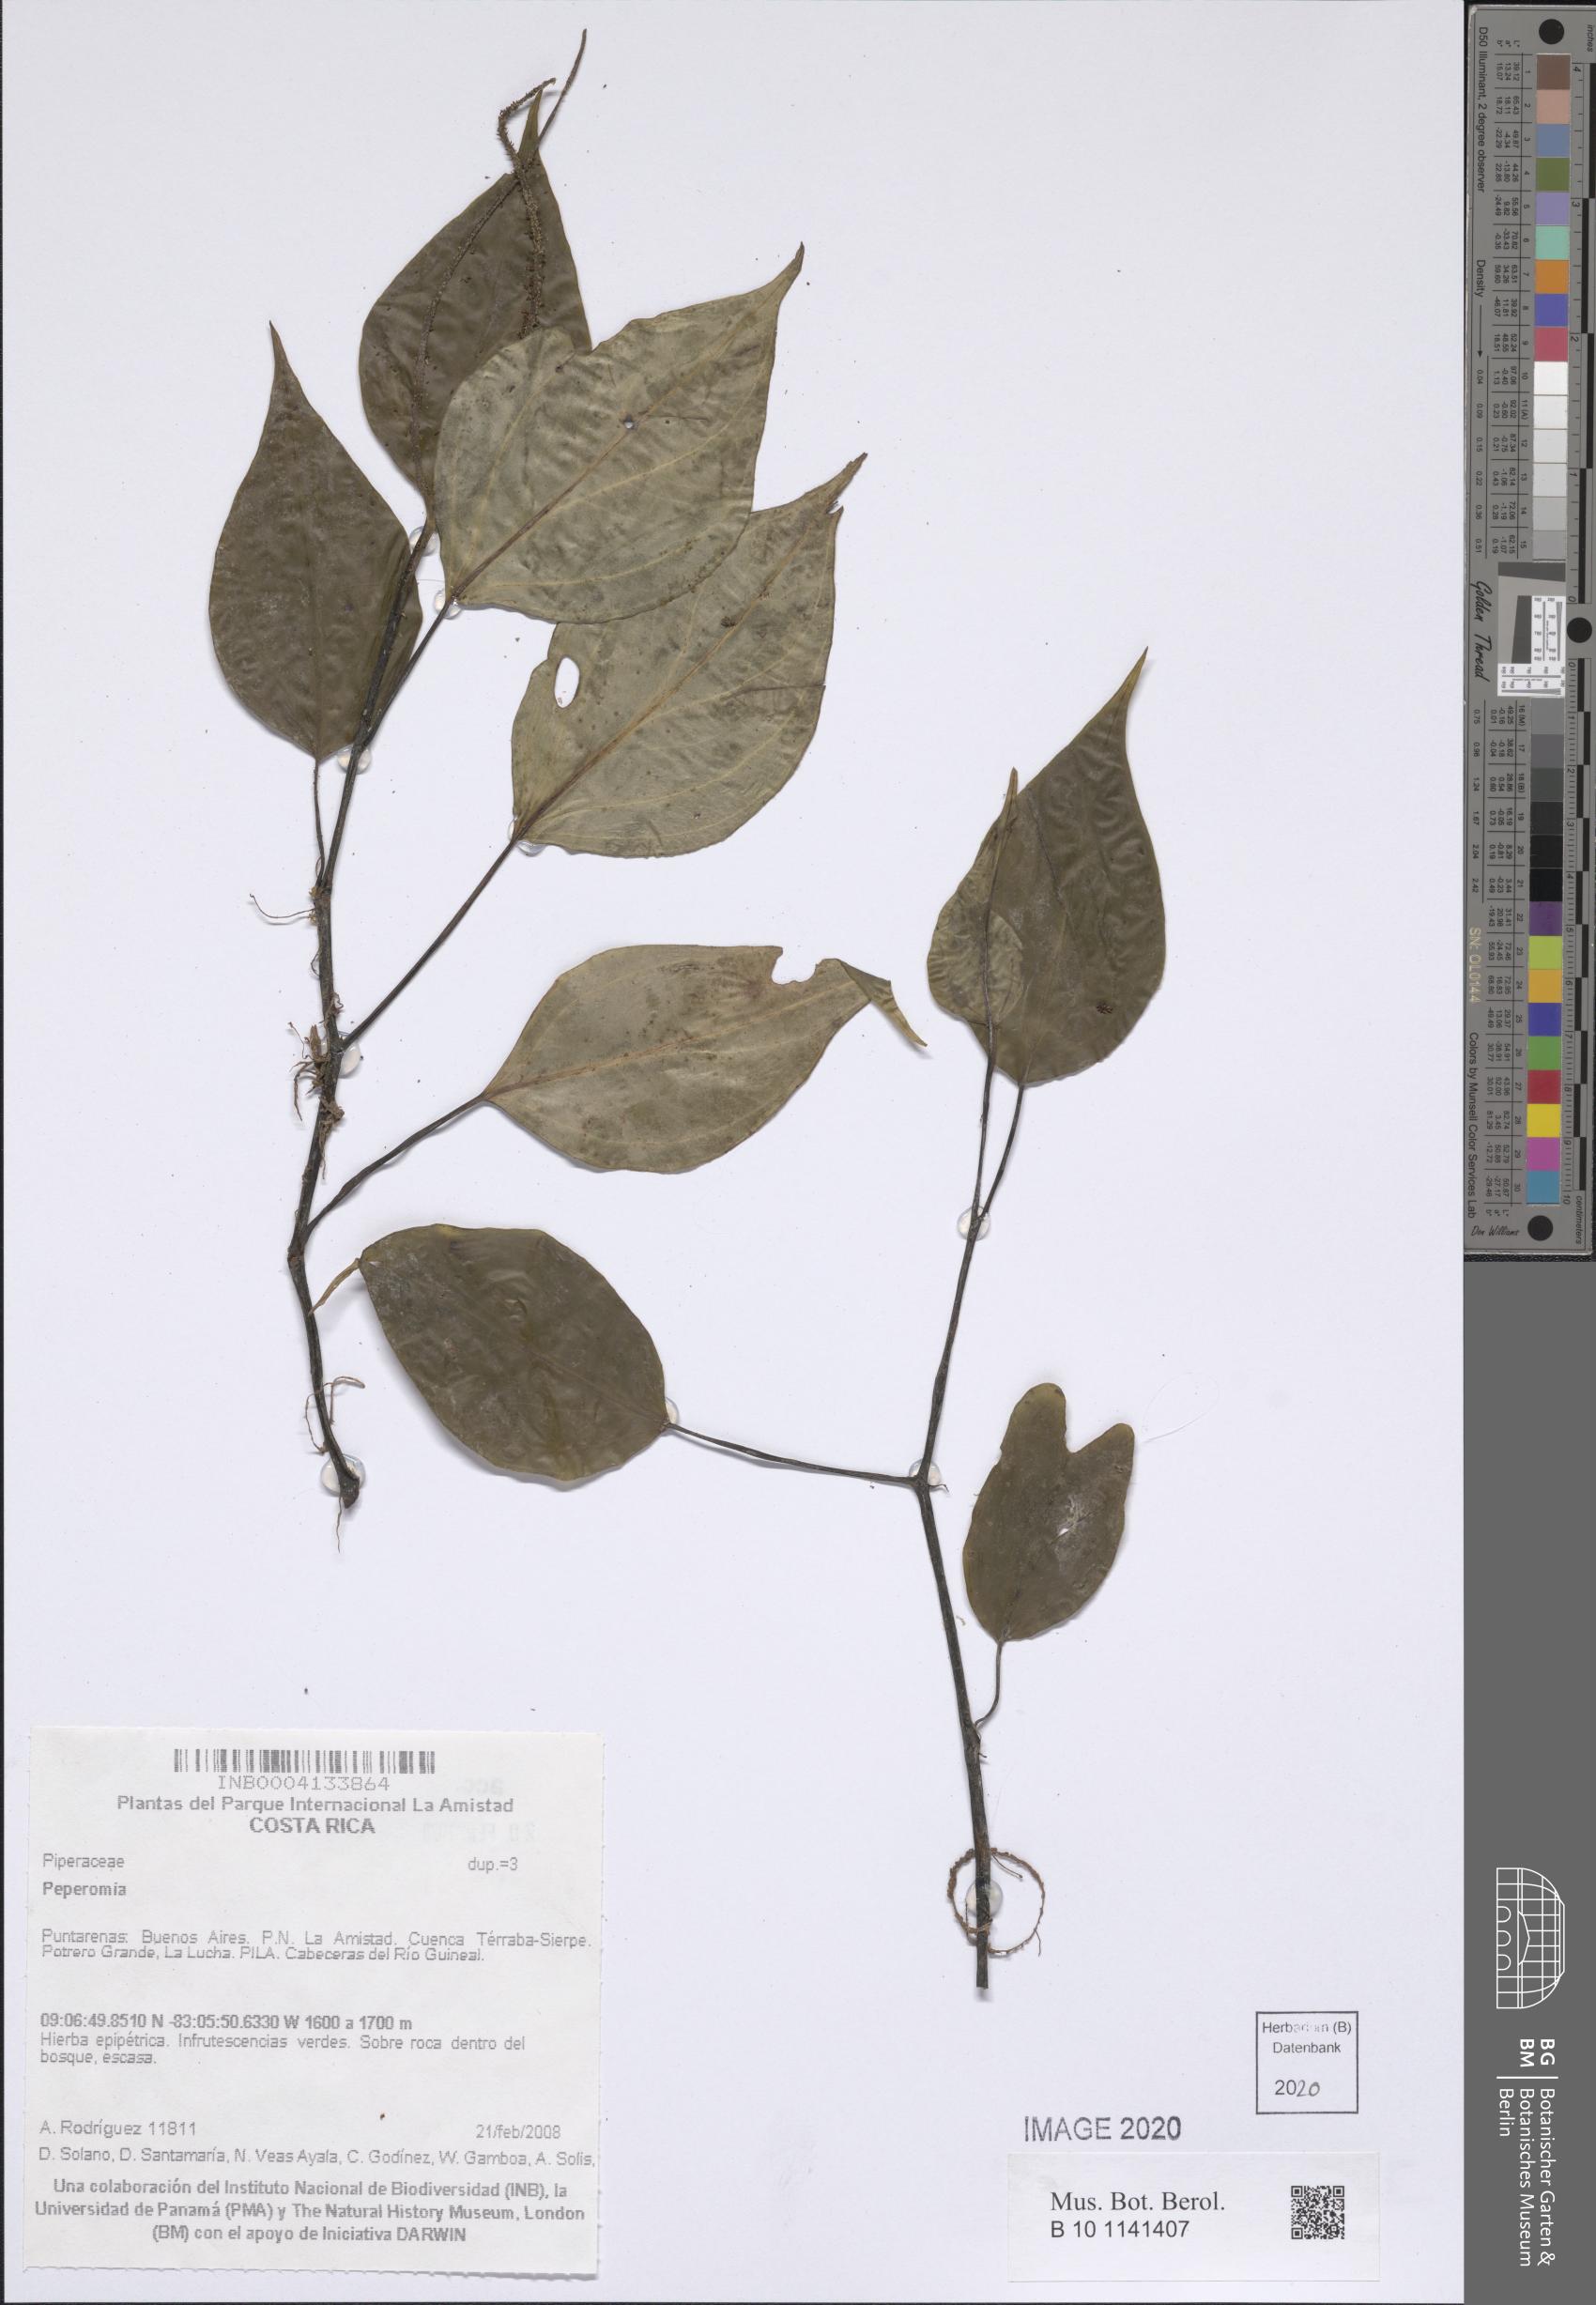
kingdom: Plantae
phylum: Tracheophyta
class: Magnoliopsida
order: Piperales
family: Piperaceae
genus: Peperomia
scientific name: Peperomia
